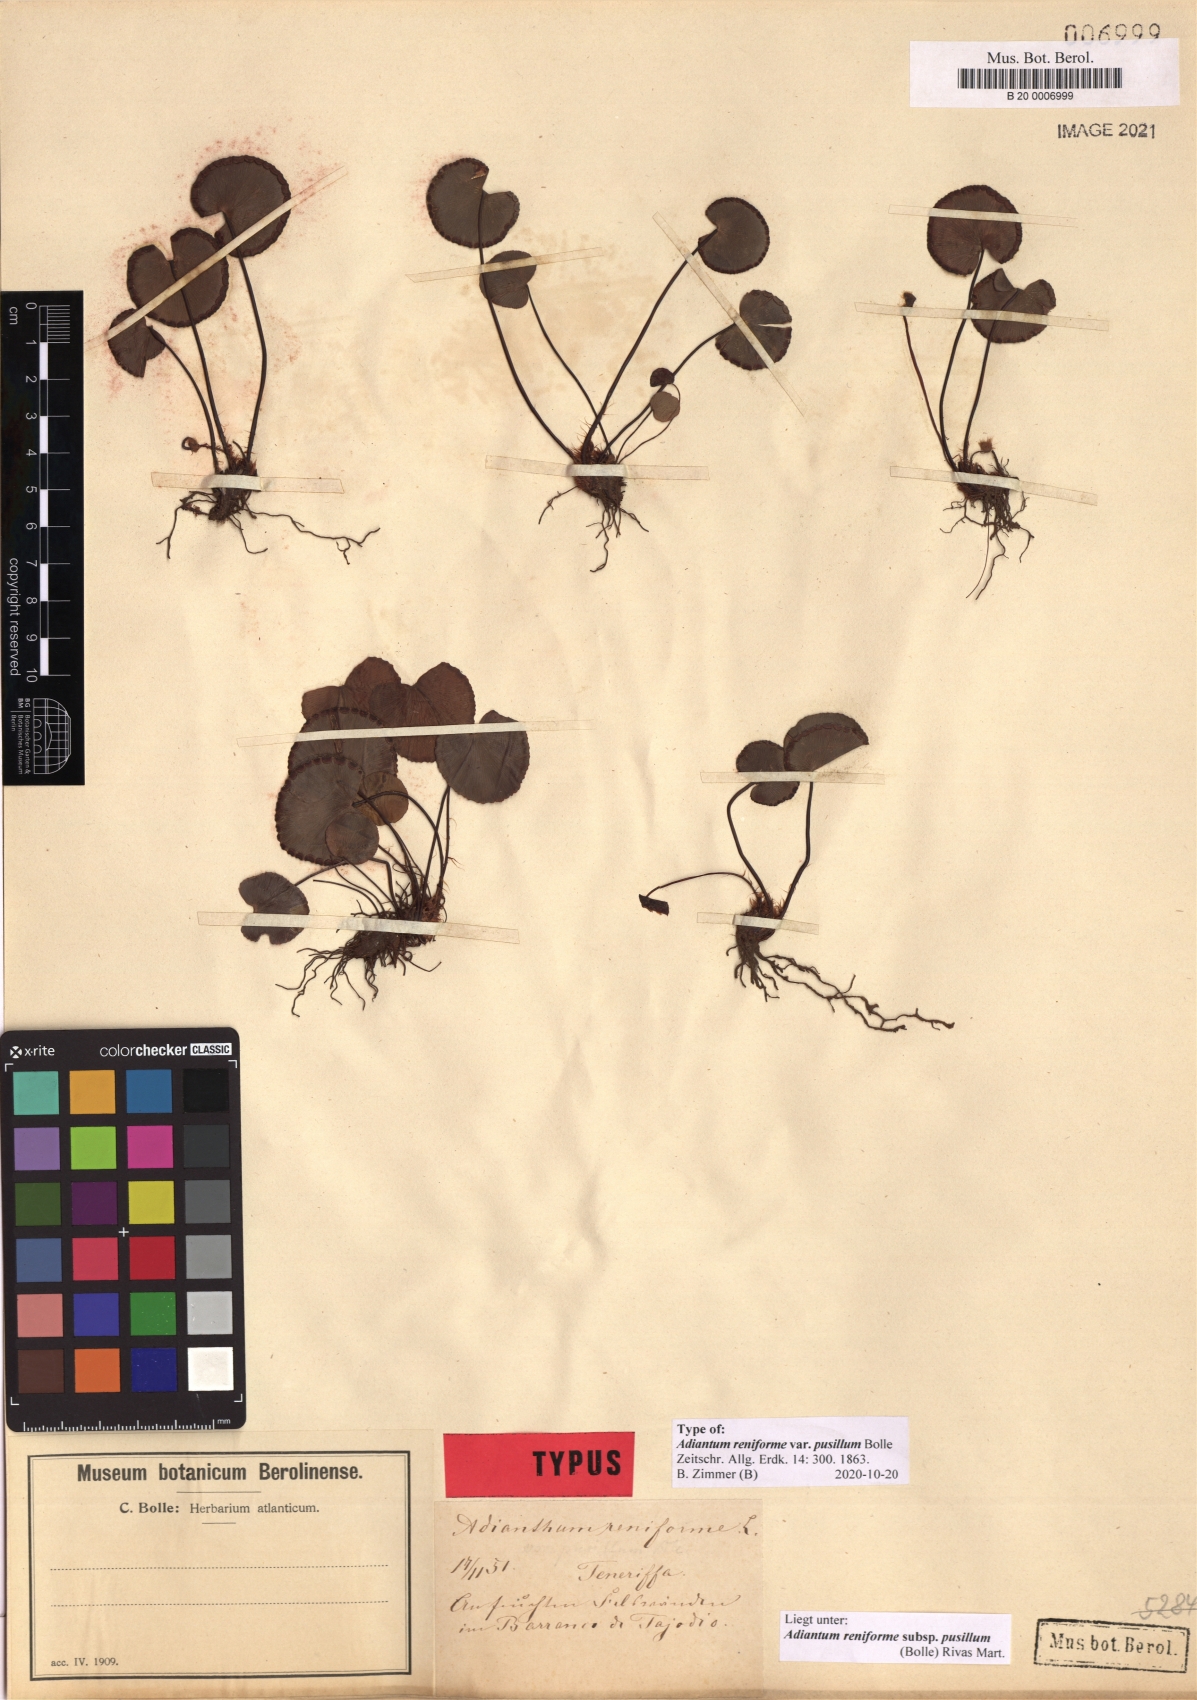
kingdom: Plantae
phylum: Tracheophyta
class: Polypodiopsida
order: Polypodiales
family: Pteridaceae
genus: Adiantum
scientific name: Adiantum reniforme
